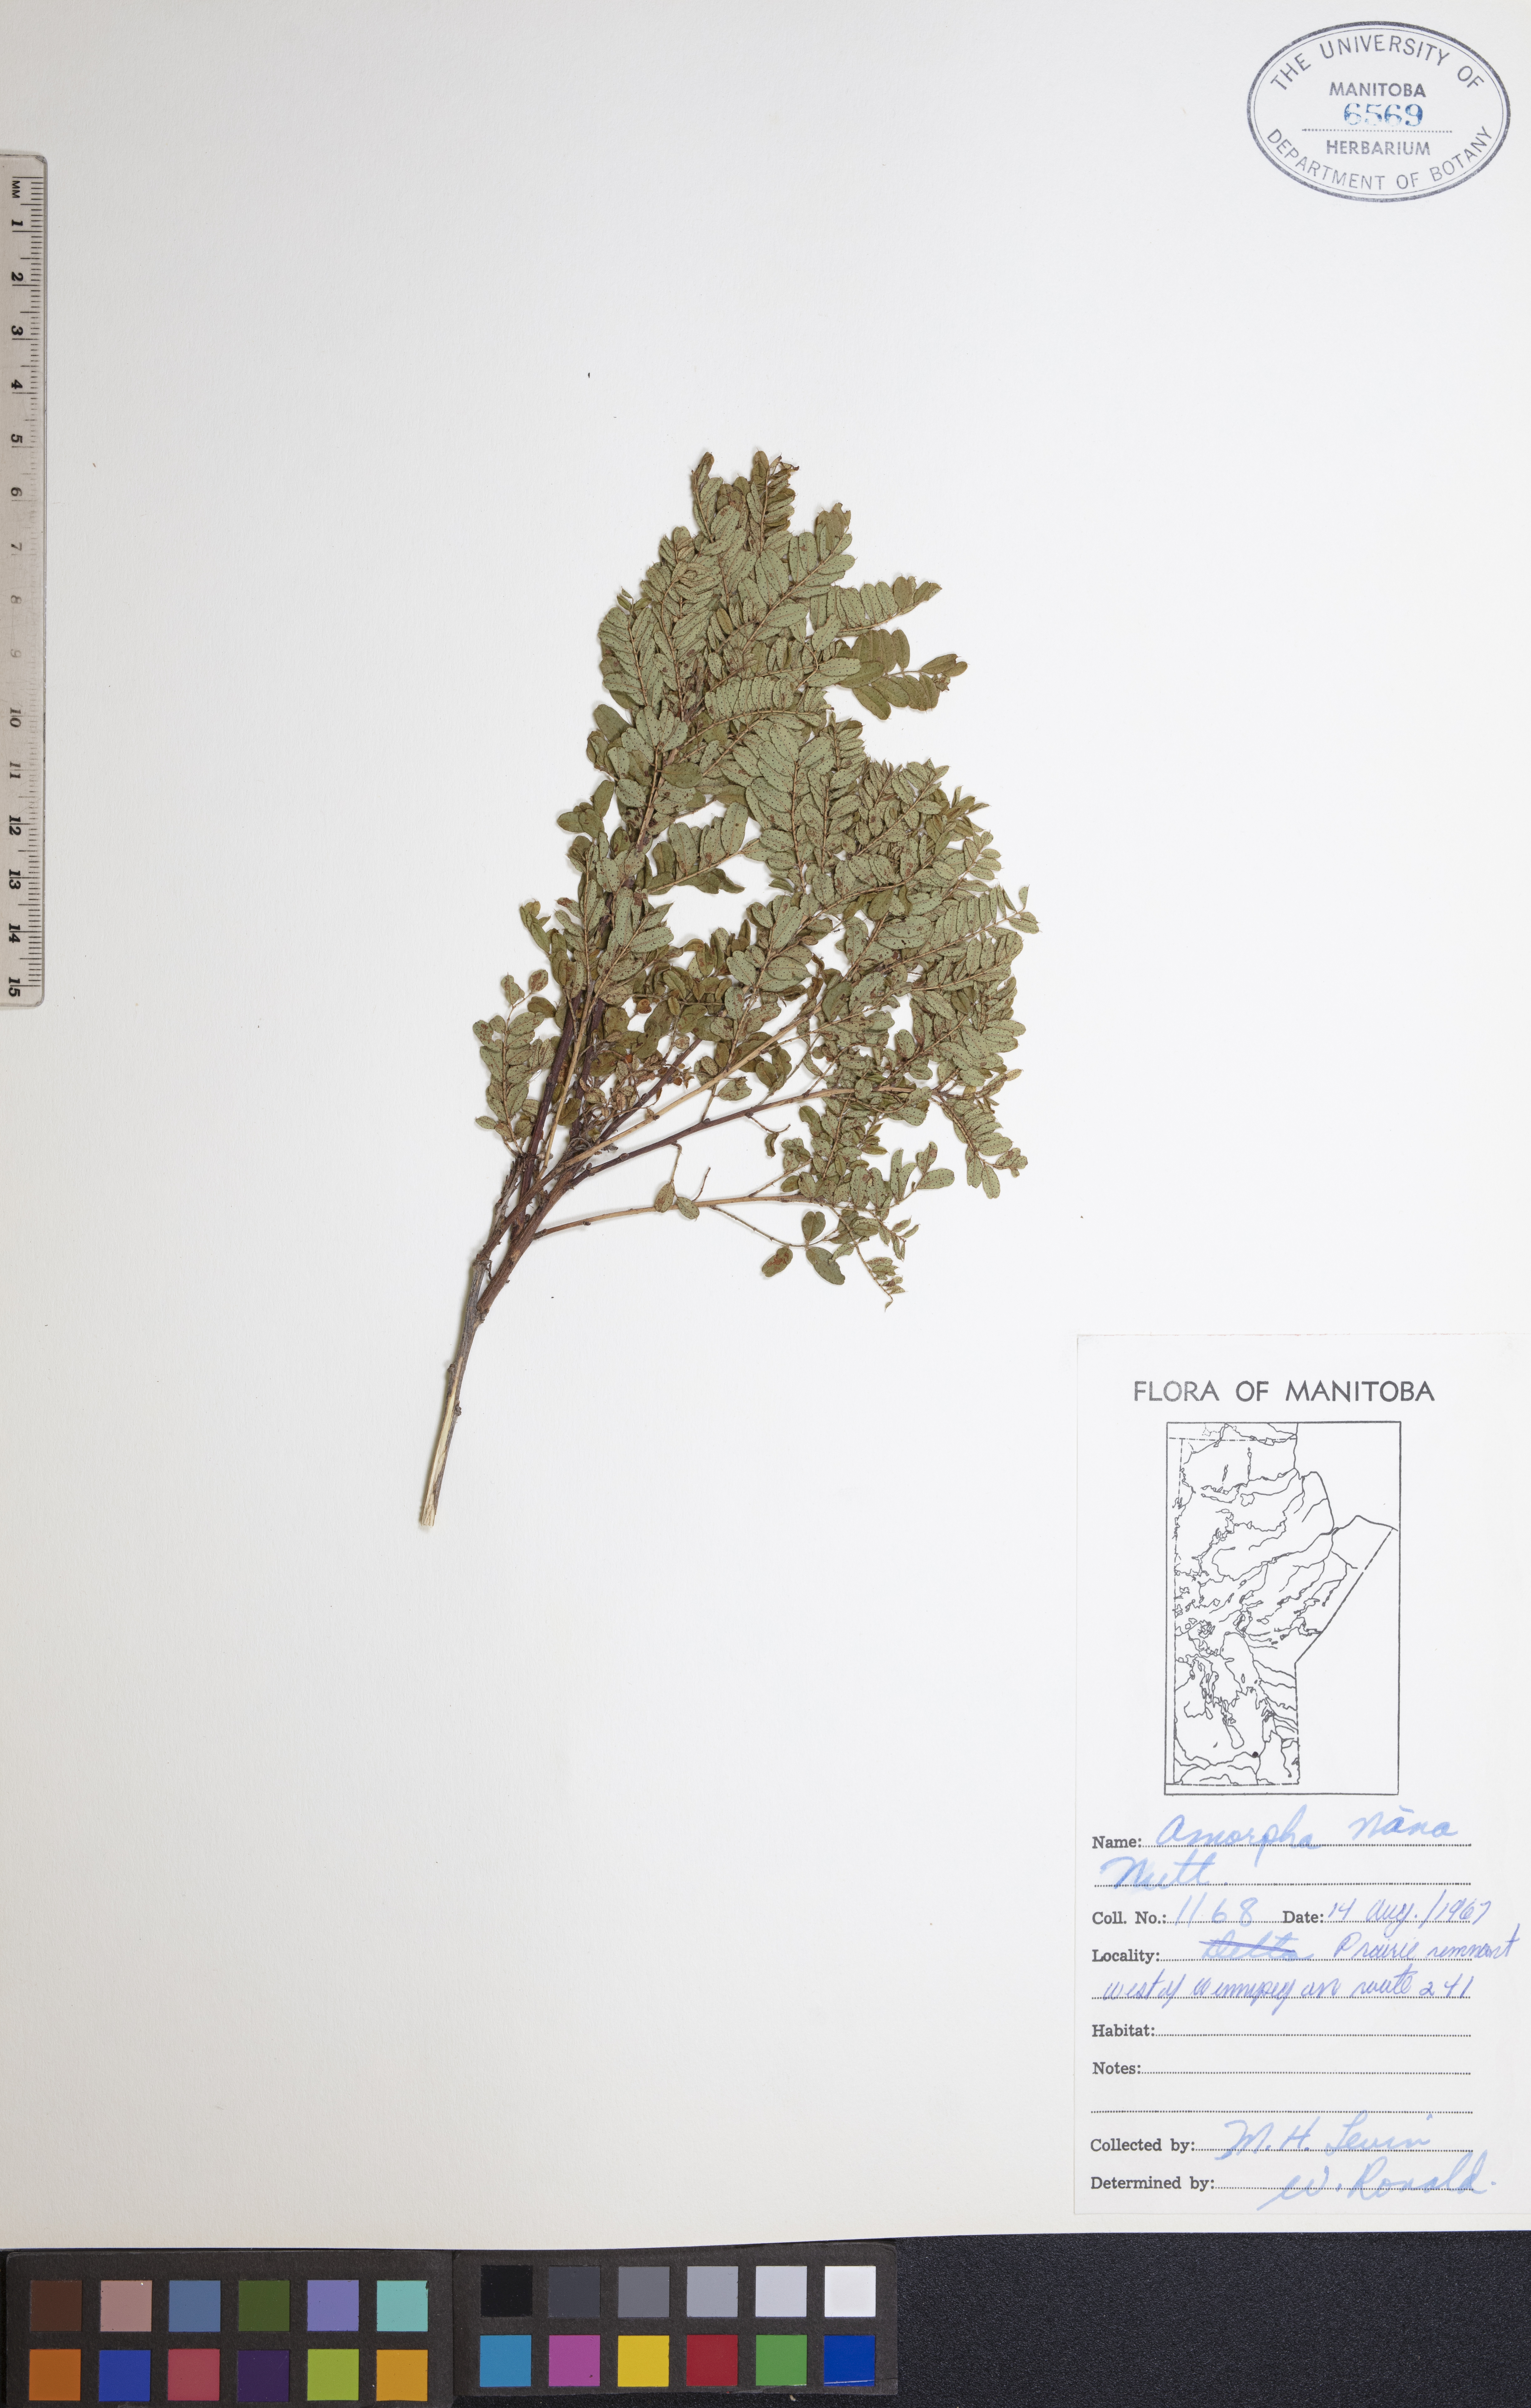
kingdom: Plantae
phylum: Tracheophyta
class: Magnoliopsida
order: Fabales
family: Fabaceae
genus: Amorpha
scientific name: Amorpha nana
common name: Fragrant false indigo
